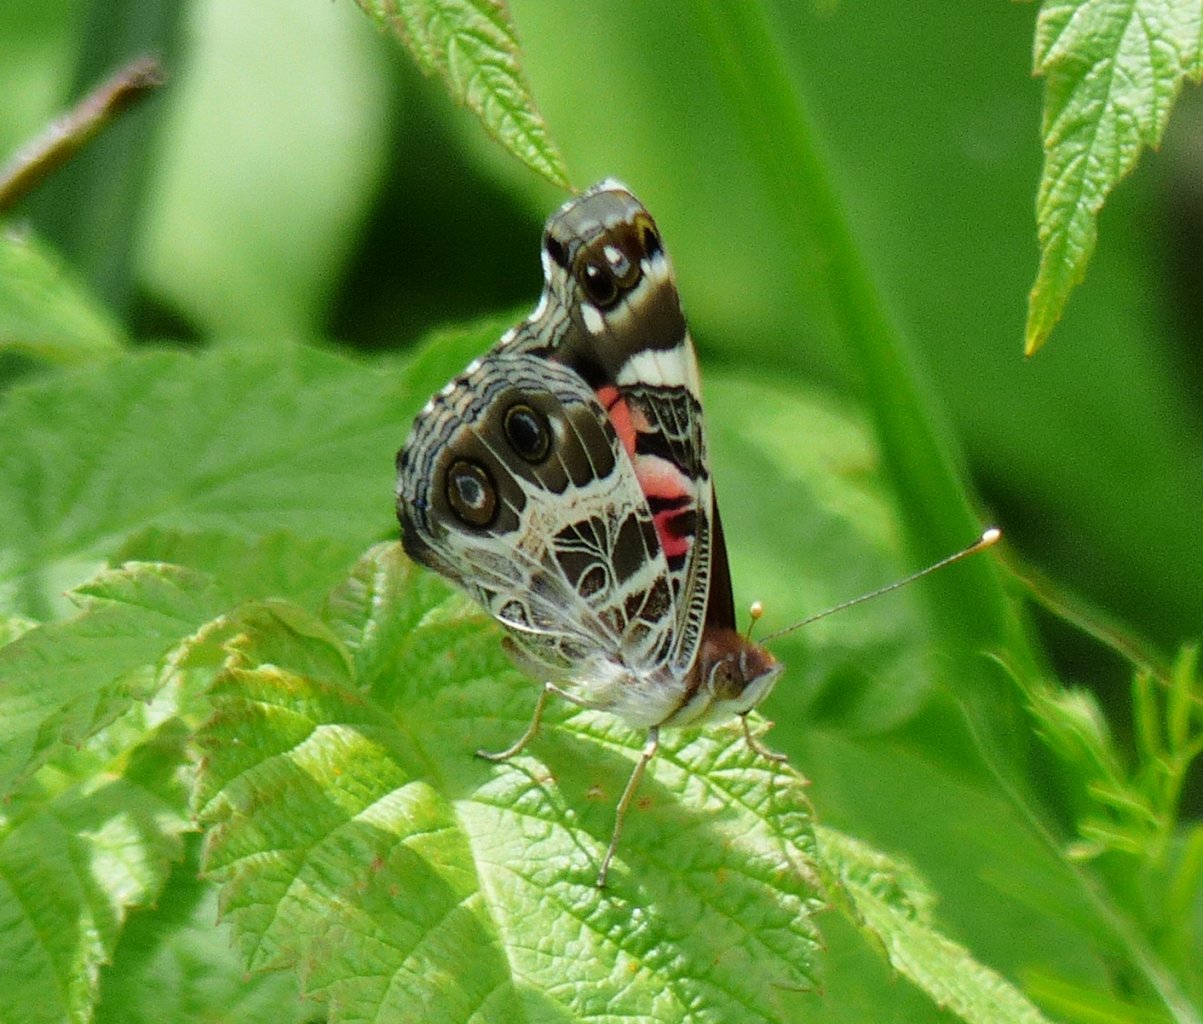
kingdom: Animalia
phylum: Arthropoda
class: Insecta
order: Lepidoptera
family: Nymphalidae
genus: Vanessa
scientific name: Vanessa virginiensis
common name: American Lady
